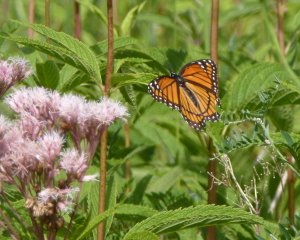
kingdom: Animalia
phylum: Arthropoda
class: Insecta
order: Lepidoptera
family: Nymphalidae
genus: Limenitis
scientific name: Limenitis archippus
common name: Viceroy
